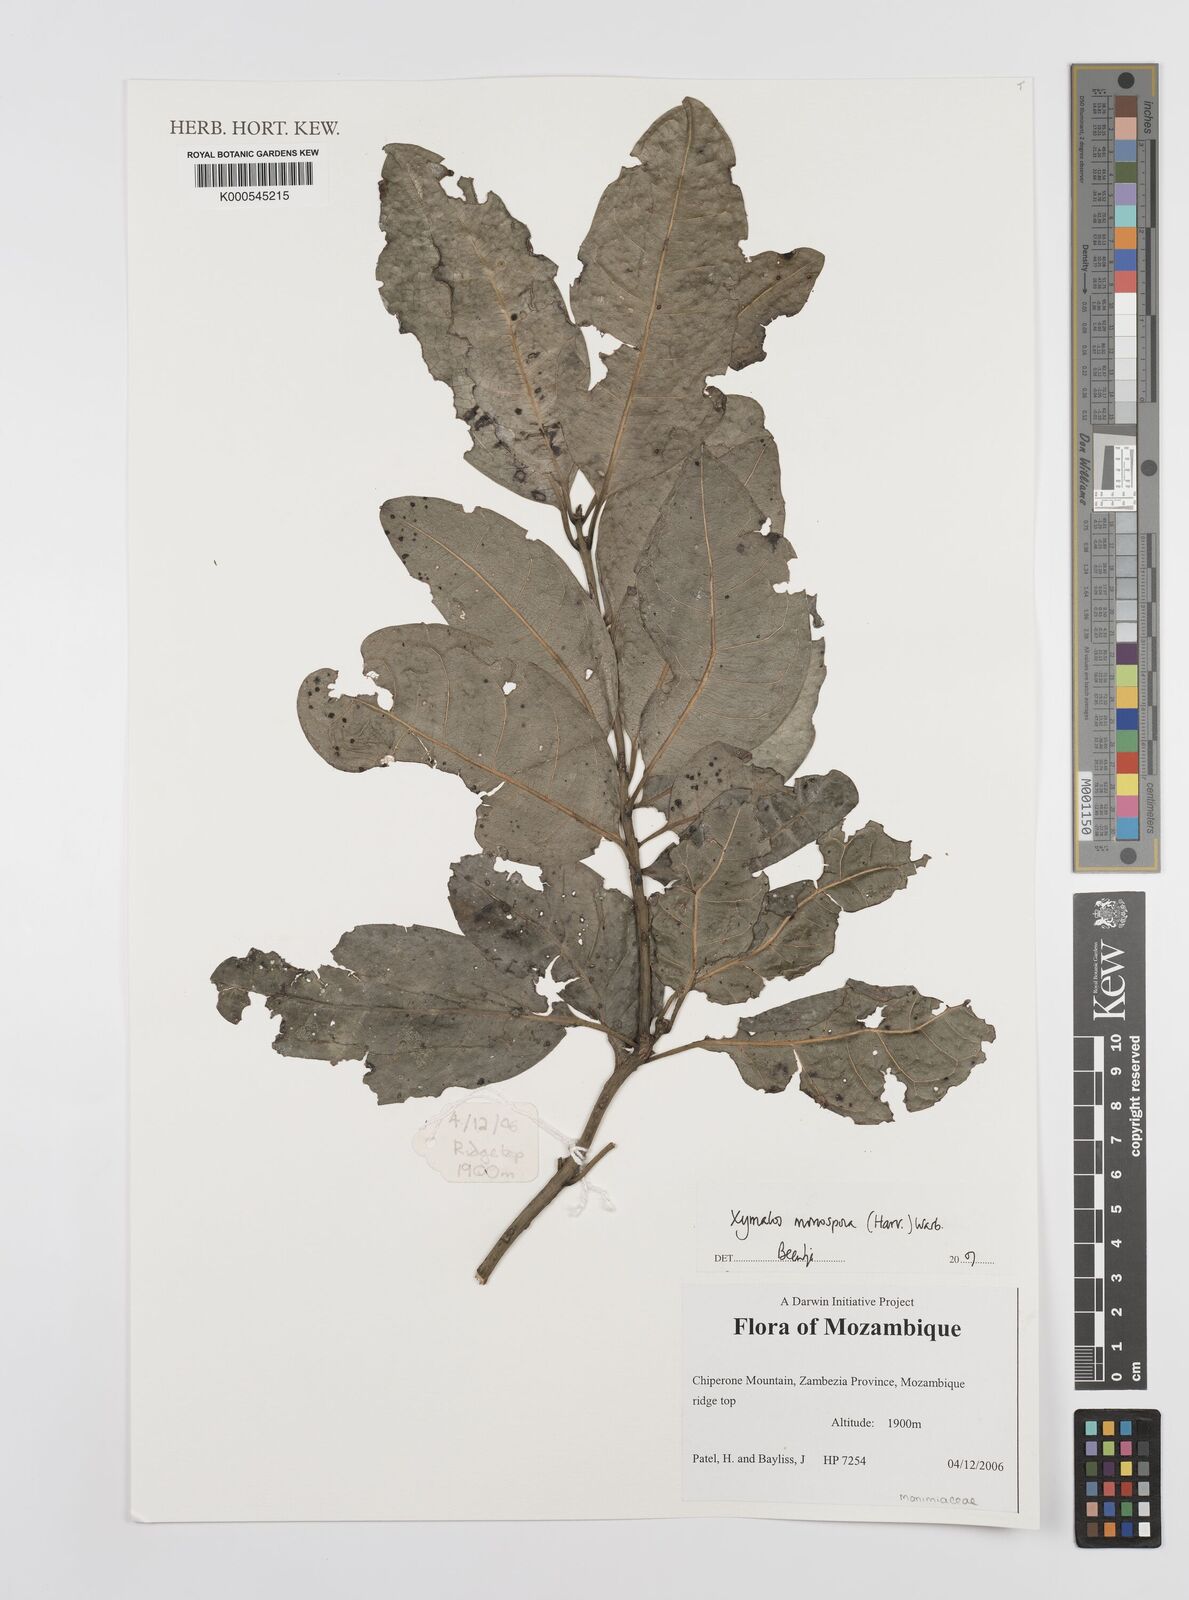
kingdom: Plantae
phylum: Tracheophyta
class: Magnoliopsida
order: Laurales
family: Monimiaceae
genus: Xymalos
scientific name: Xymalos
